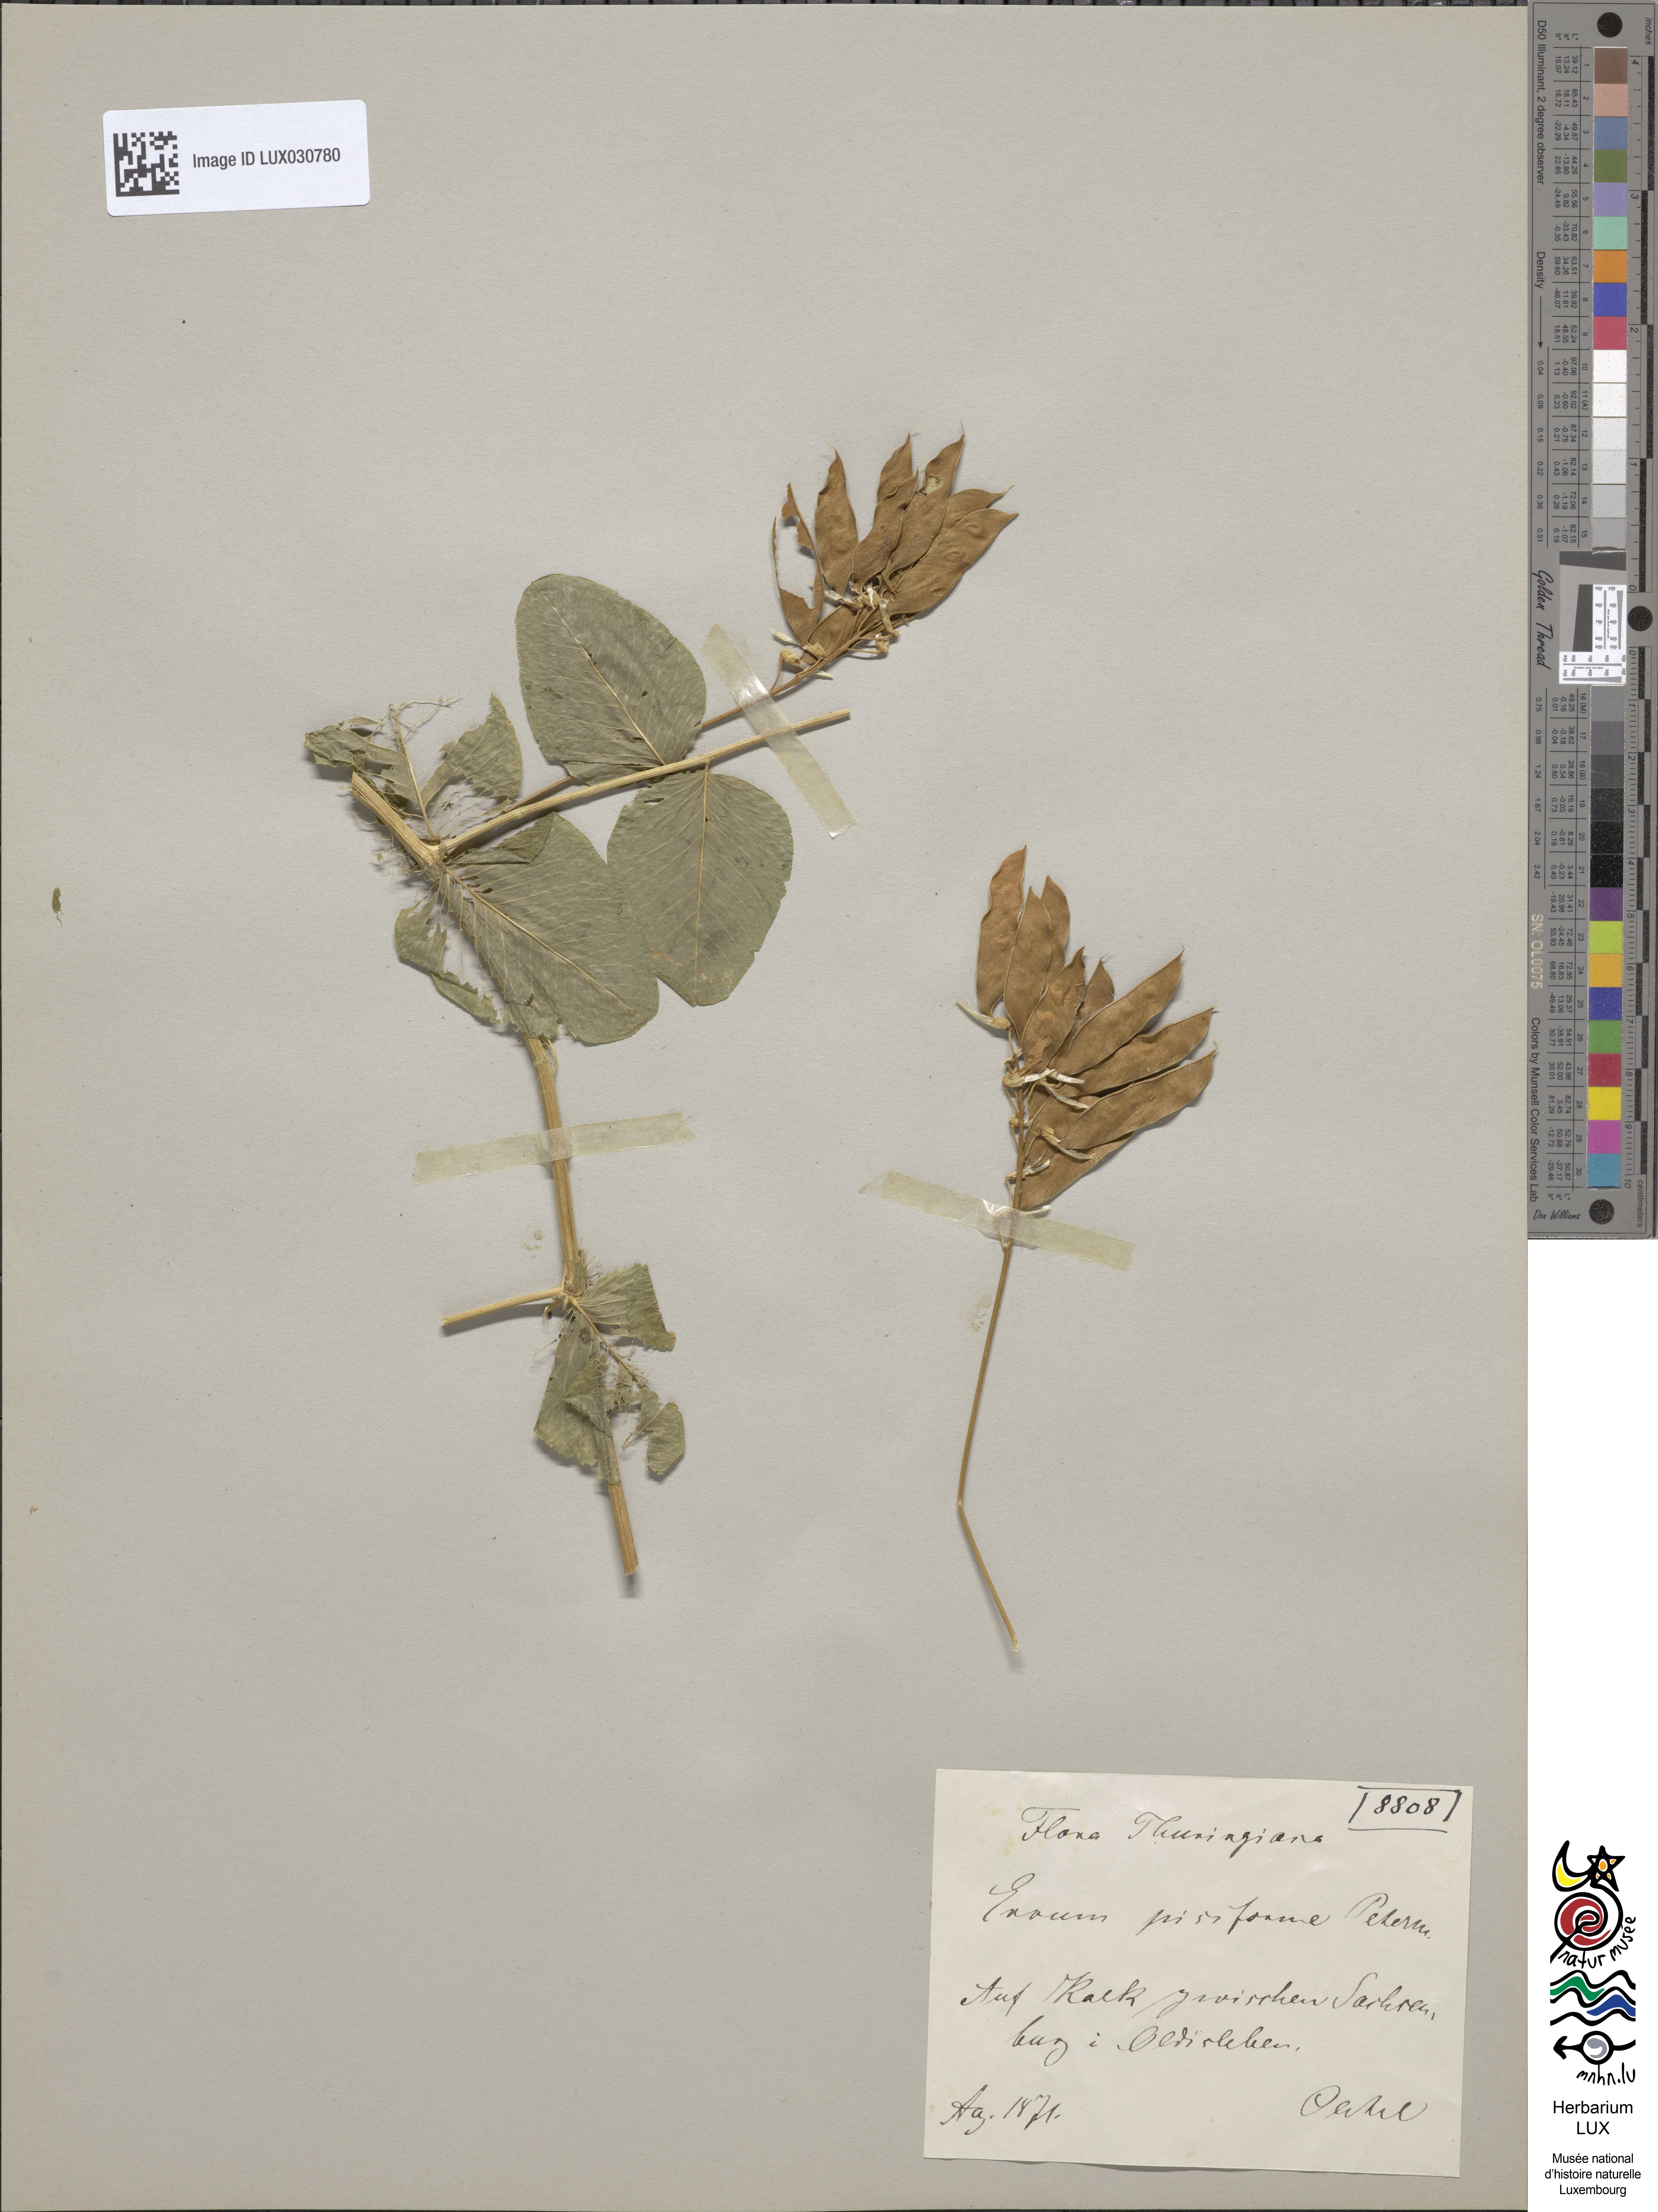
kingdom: Plantae
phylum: Tracheophyta
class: Magnoliopsida
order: Fabales
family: Fabaceae
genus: Vicia
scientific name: Vicia pisiformis
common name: Pale-flower vetch
